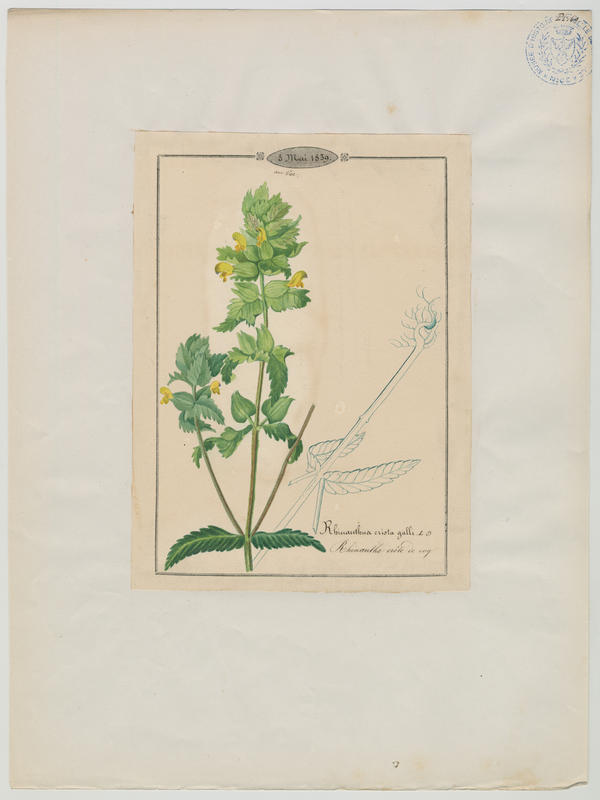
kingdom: Plantae
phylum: Tracheophyta
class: Magnoliopsida
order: Lamiales
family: Orobanchaceae
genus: Rhinanthus
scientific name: Rhinanthus minor
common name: Yellow-rattle
